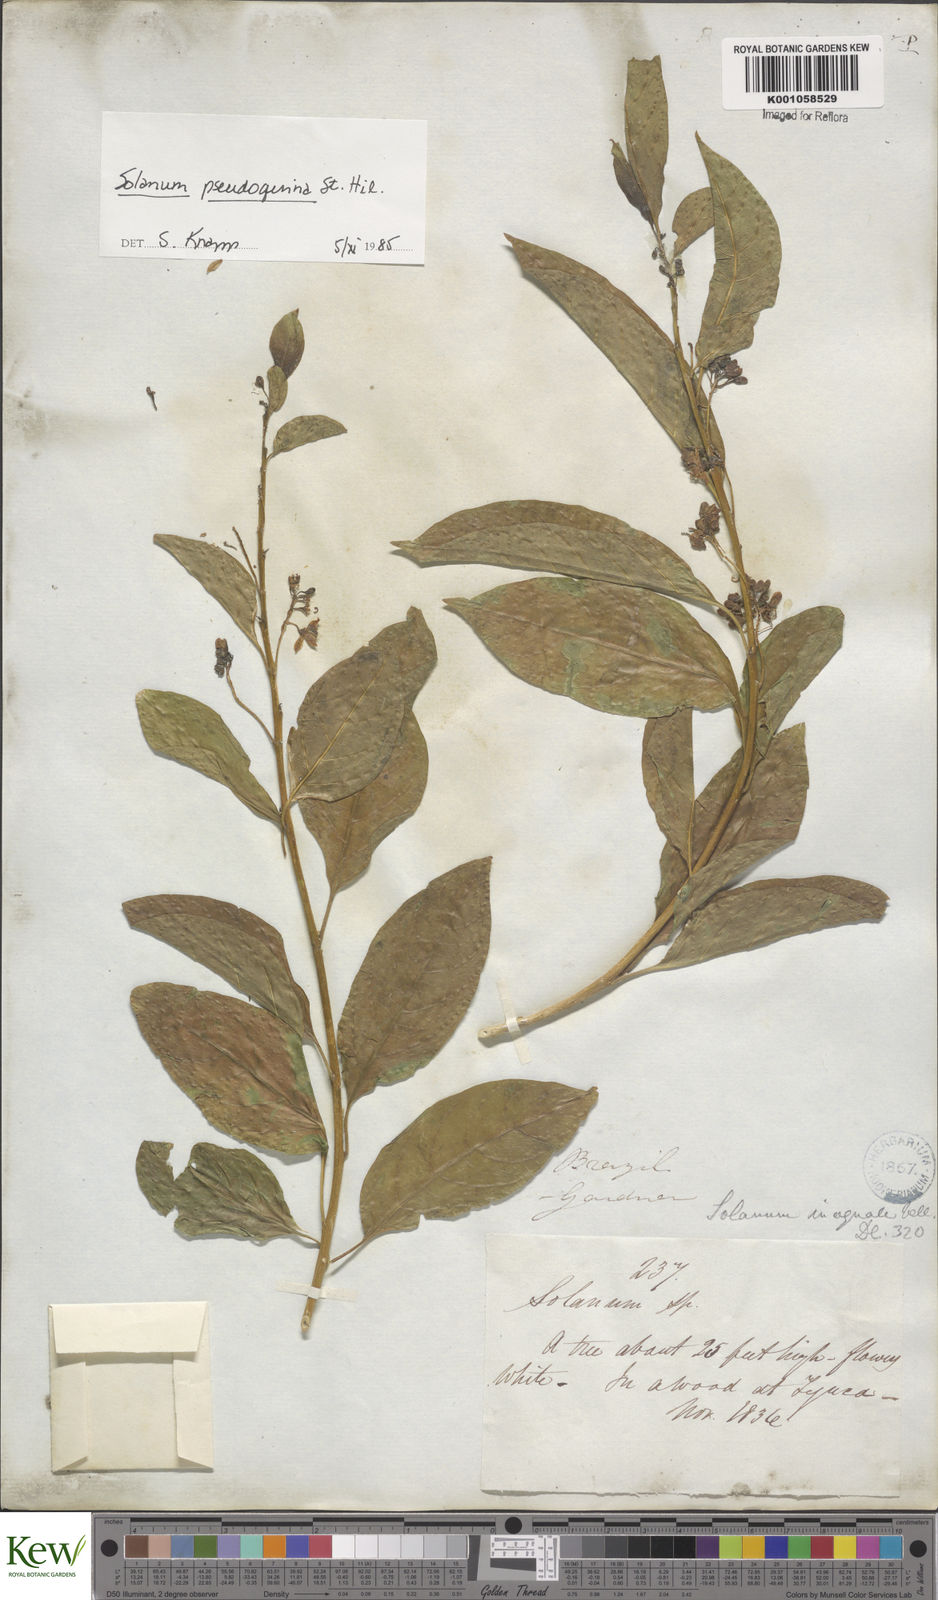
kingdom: Plantae
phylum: Tracheophyta
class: Magnoliopsida
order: Solanales
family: Solanaceae
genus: Solanum
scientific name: Solanum pseudoquina
